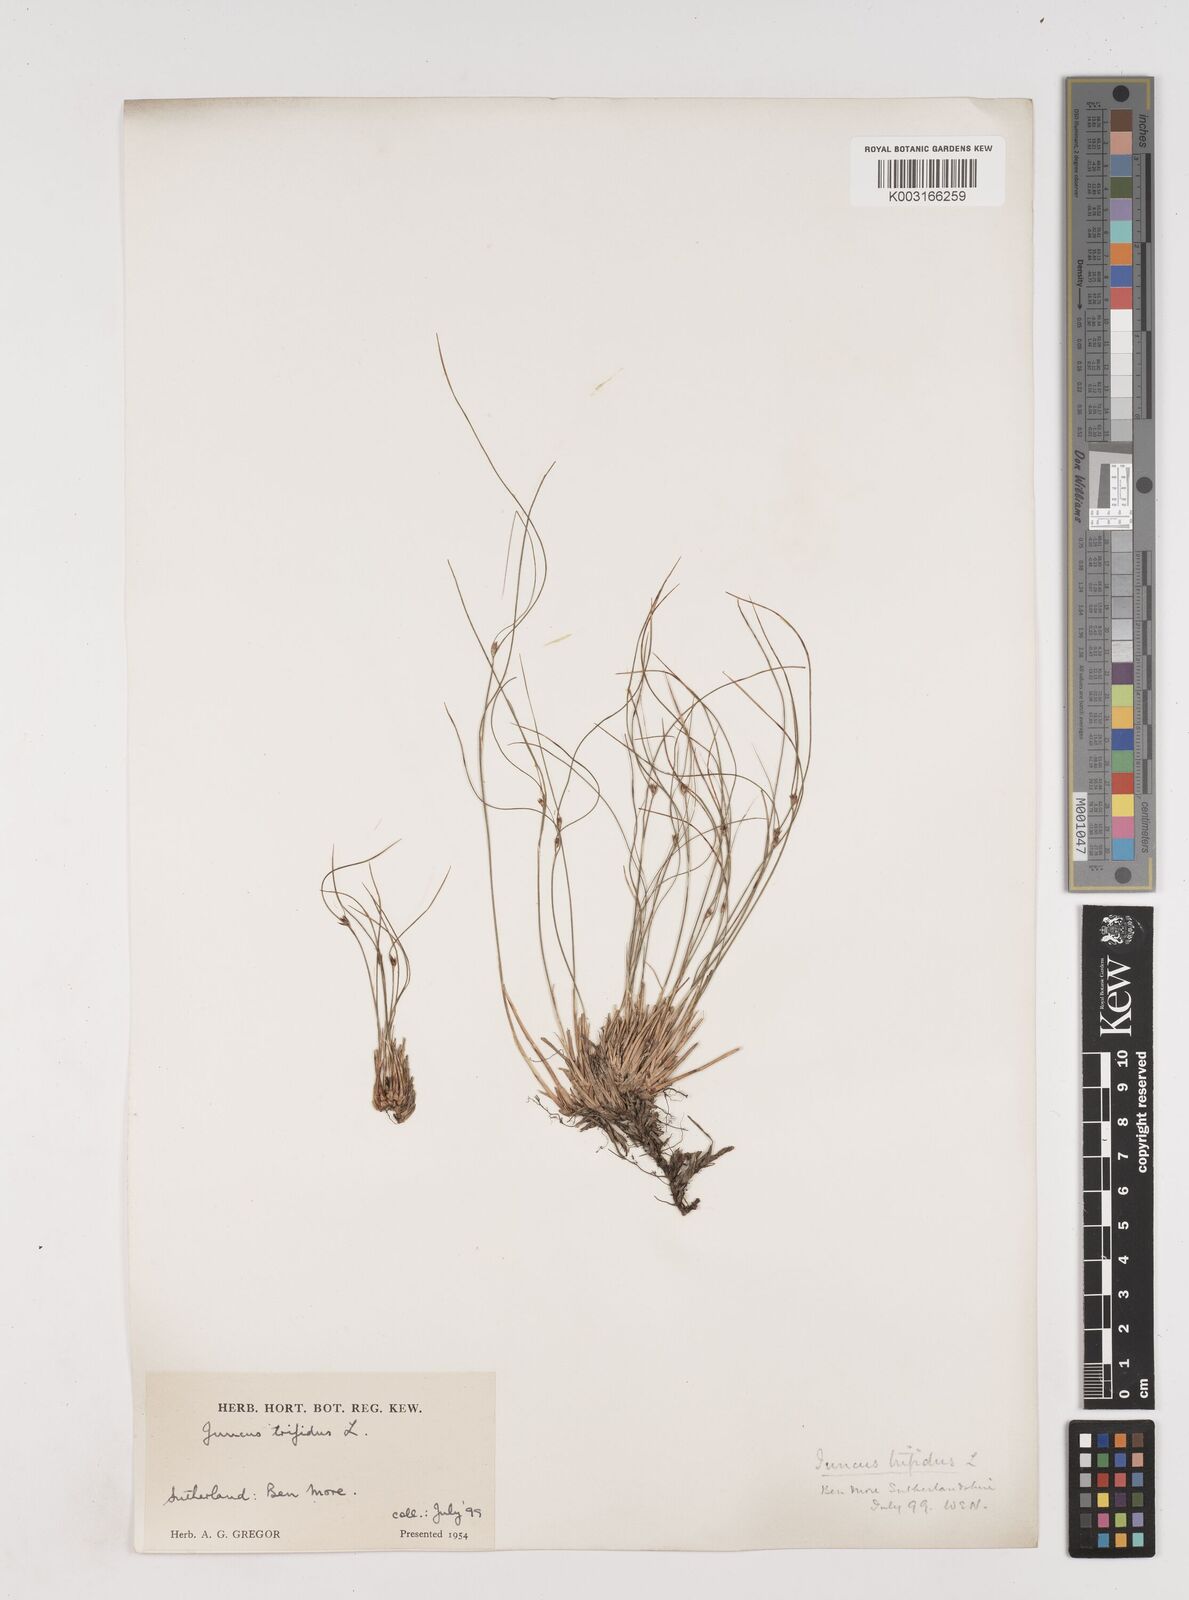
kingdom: Plantae
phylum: Tracheophyta
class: Liliopsida
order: Poales
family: Juncaceae
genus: Oreojuncus
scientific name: Oreojuncus trifidus
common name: Highland rush
